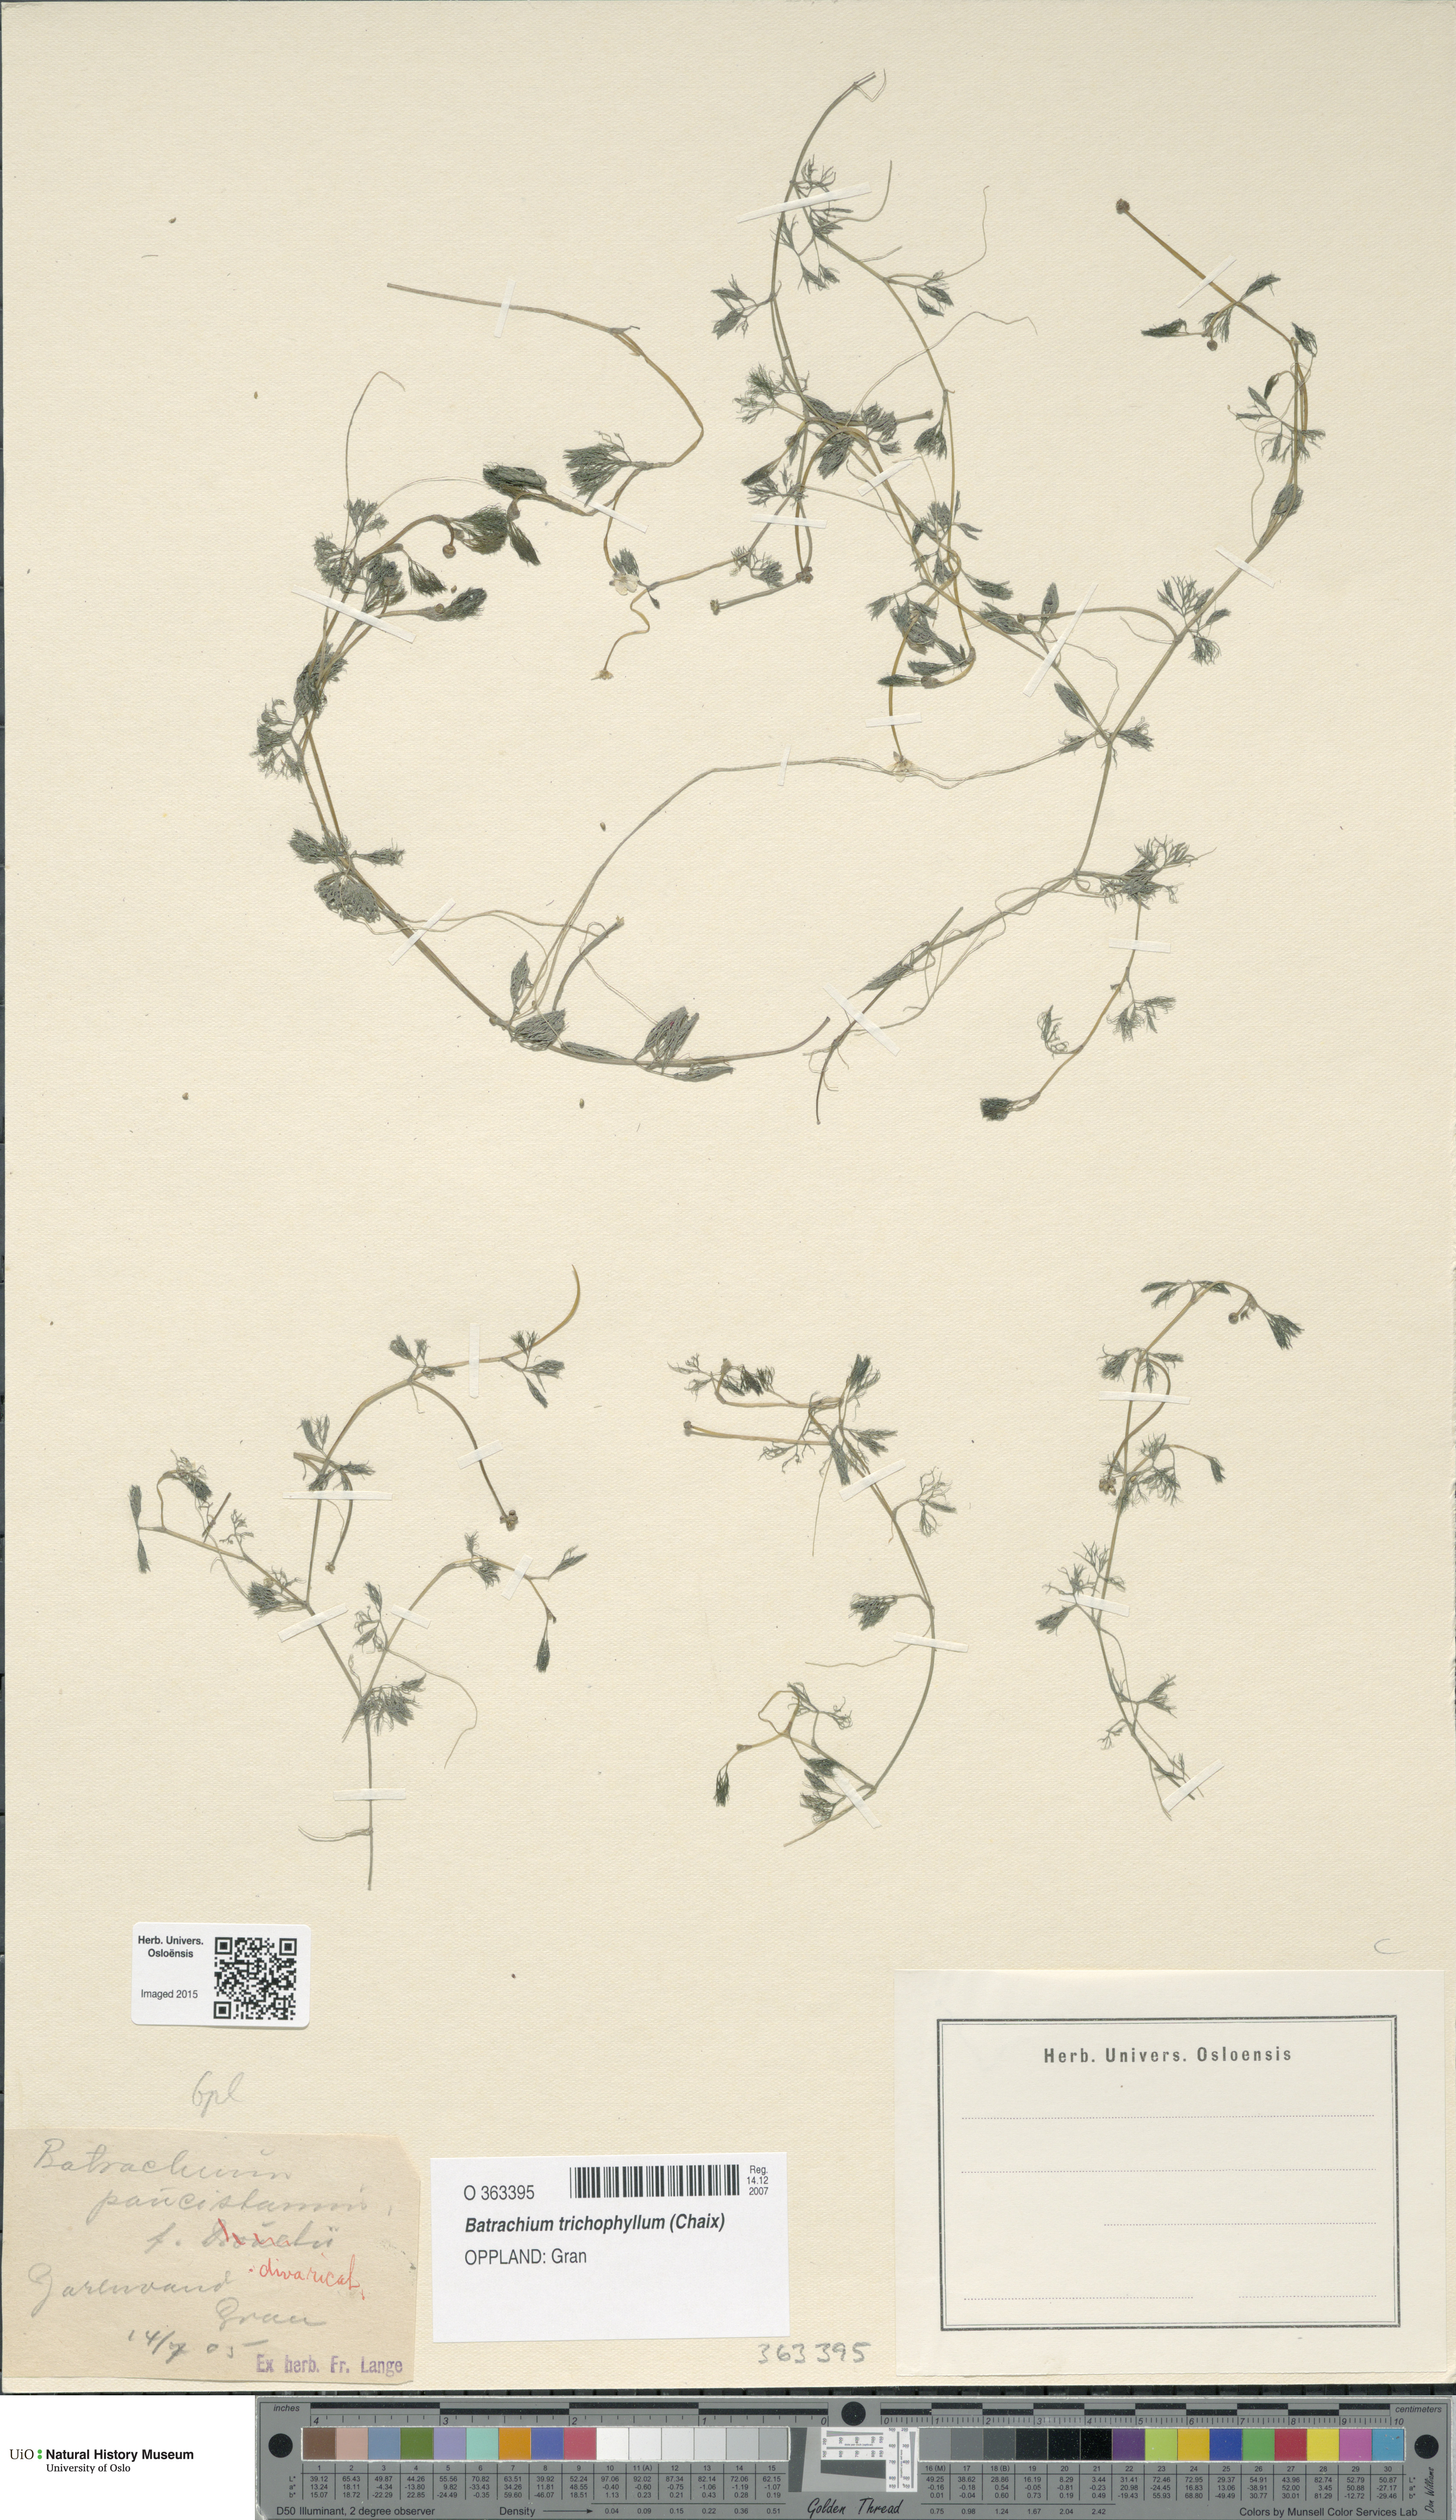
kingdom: Plantae
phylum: Tracheophyta
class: Magnoliopsida
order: Ranunculales
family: Ranunculaceae
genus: Ranunculus
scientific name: Ranunculus trichophyllus
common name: Thread-leaved water-crowfoot
